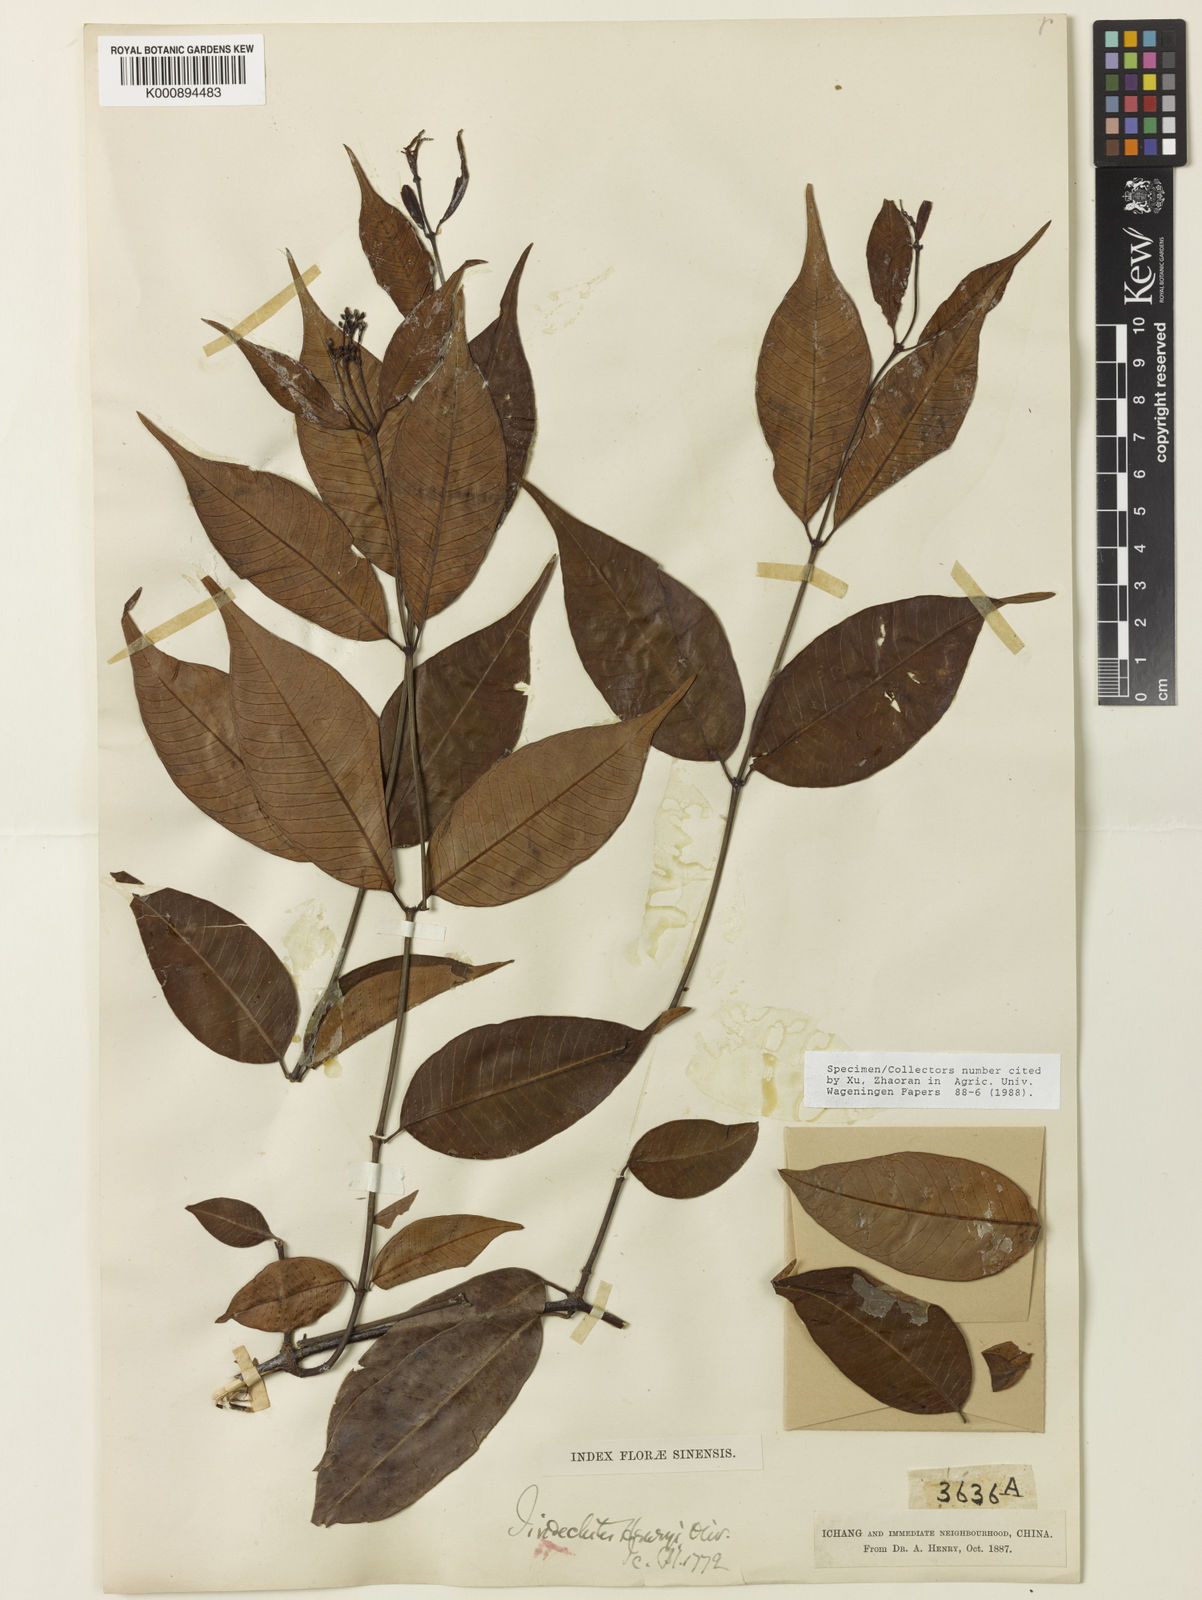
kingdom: Plantae
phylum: Tracheophyta
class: Magnoliopsida
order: Gentianales
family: Apocynaceae
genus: Sindechites
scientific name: Sindechites henryi
